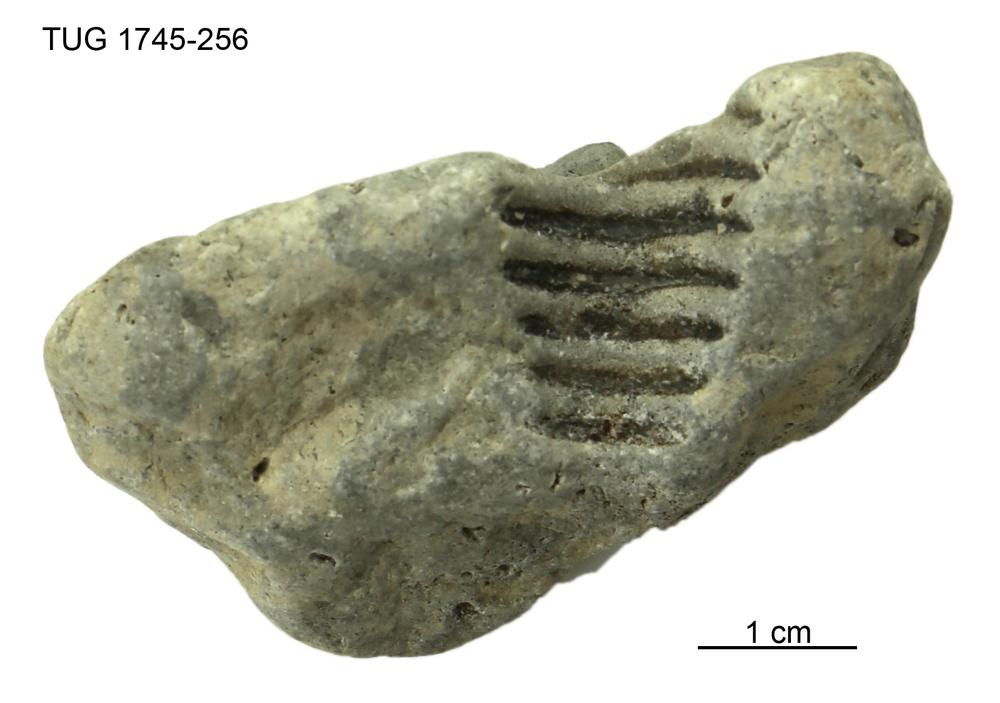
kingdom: Animalia
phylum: Mollusca
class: Cephalopoda
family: Tarphyceratidae
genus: Diestoceras
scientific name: Diestoceras stensioei
